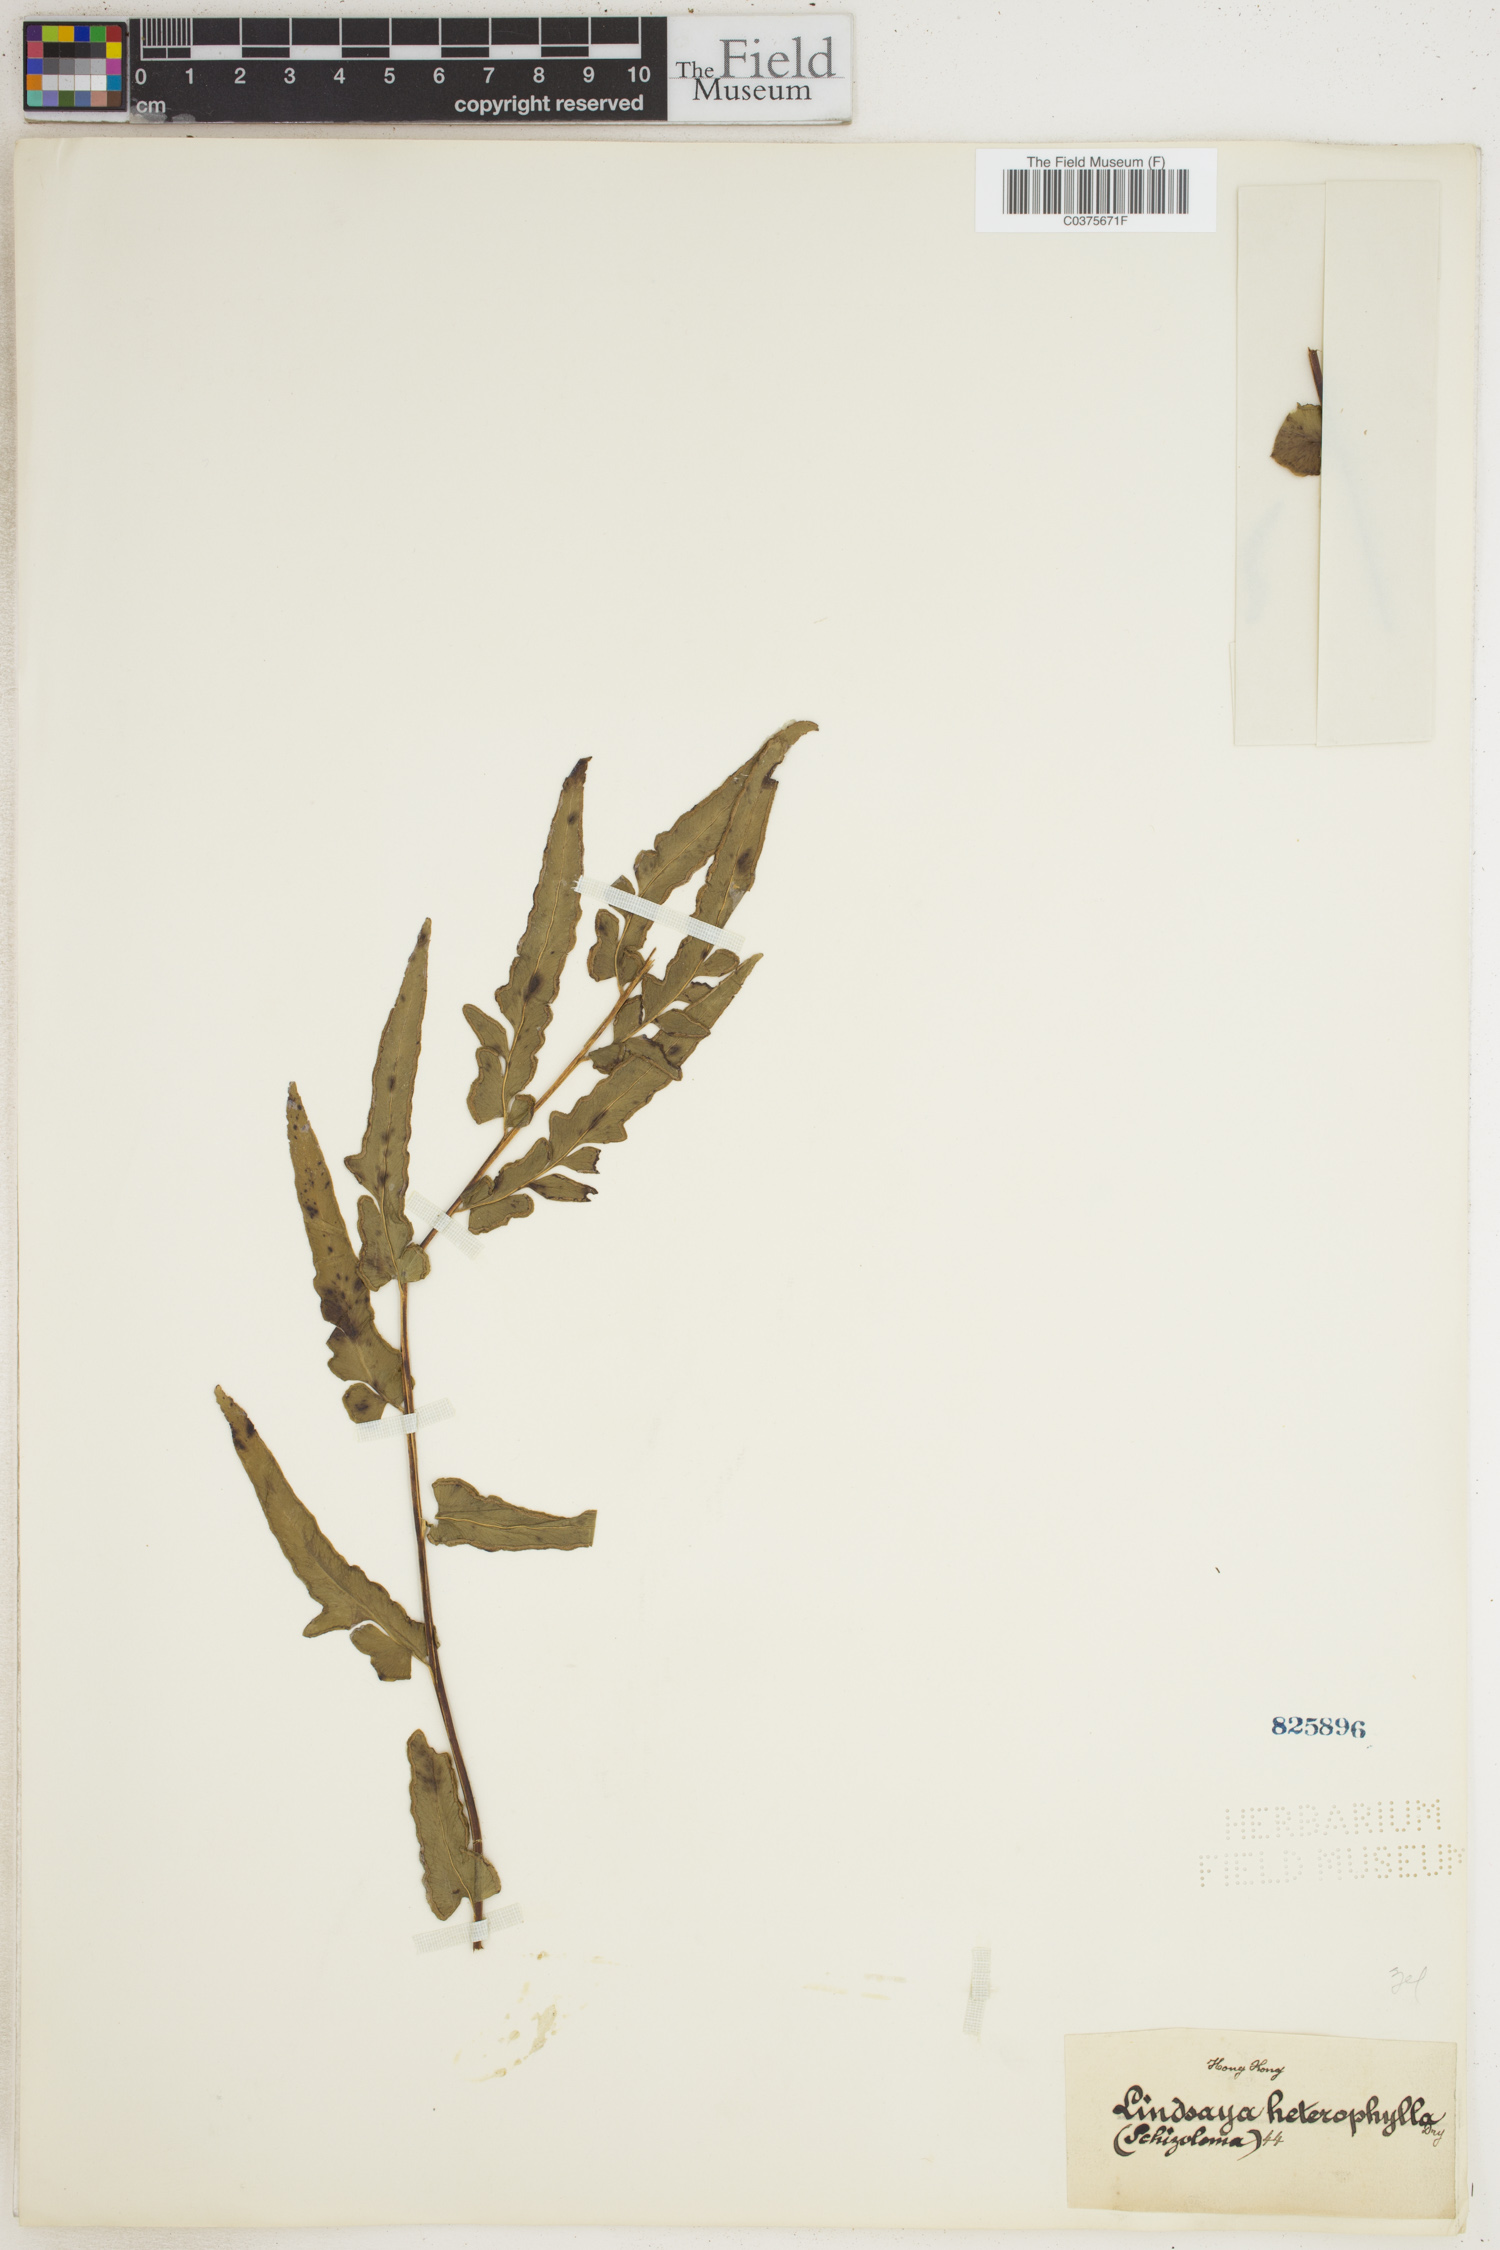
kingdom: Plantae
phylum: Tracheophyta
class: Polypodiopsida
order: Polypodiales
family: Lindsaeaceae
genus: Lindsaea
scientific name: Lindsaea heterophylla
